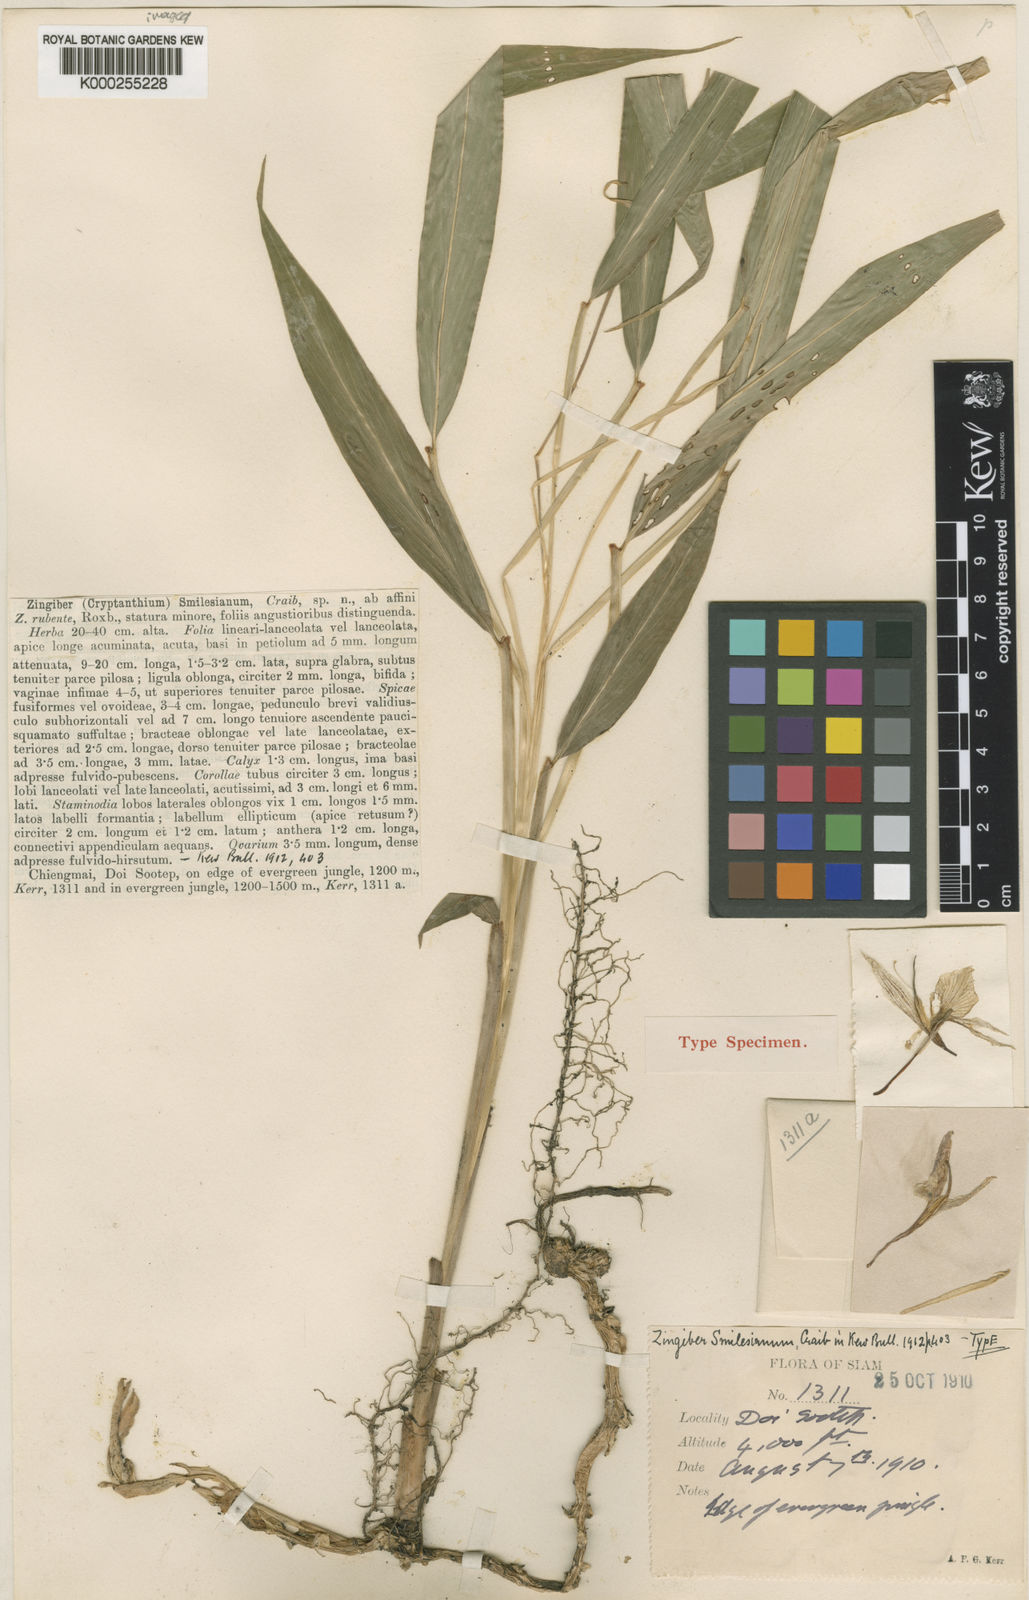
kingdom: Plantae
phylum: Tracheophyta
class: Liliopsida
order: Zingiberales
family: Zingiberaceae
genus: Zingiber
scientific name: Zingiber smilesianum
